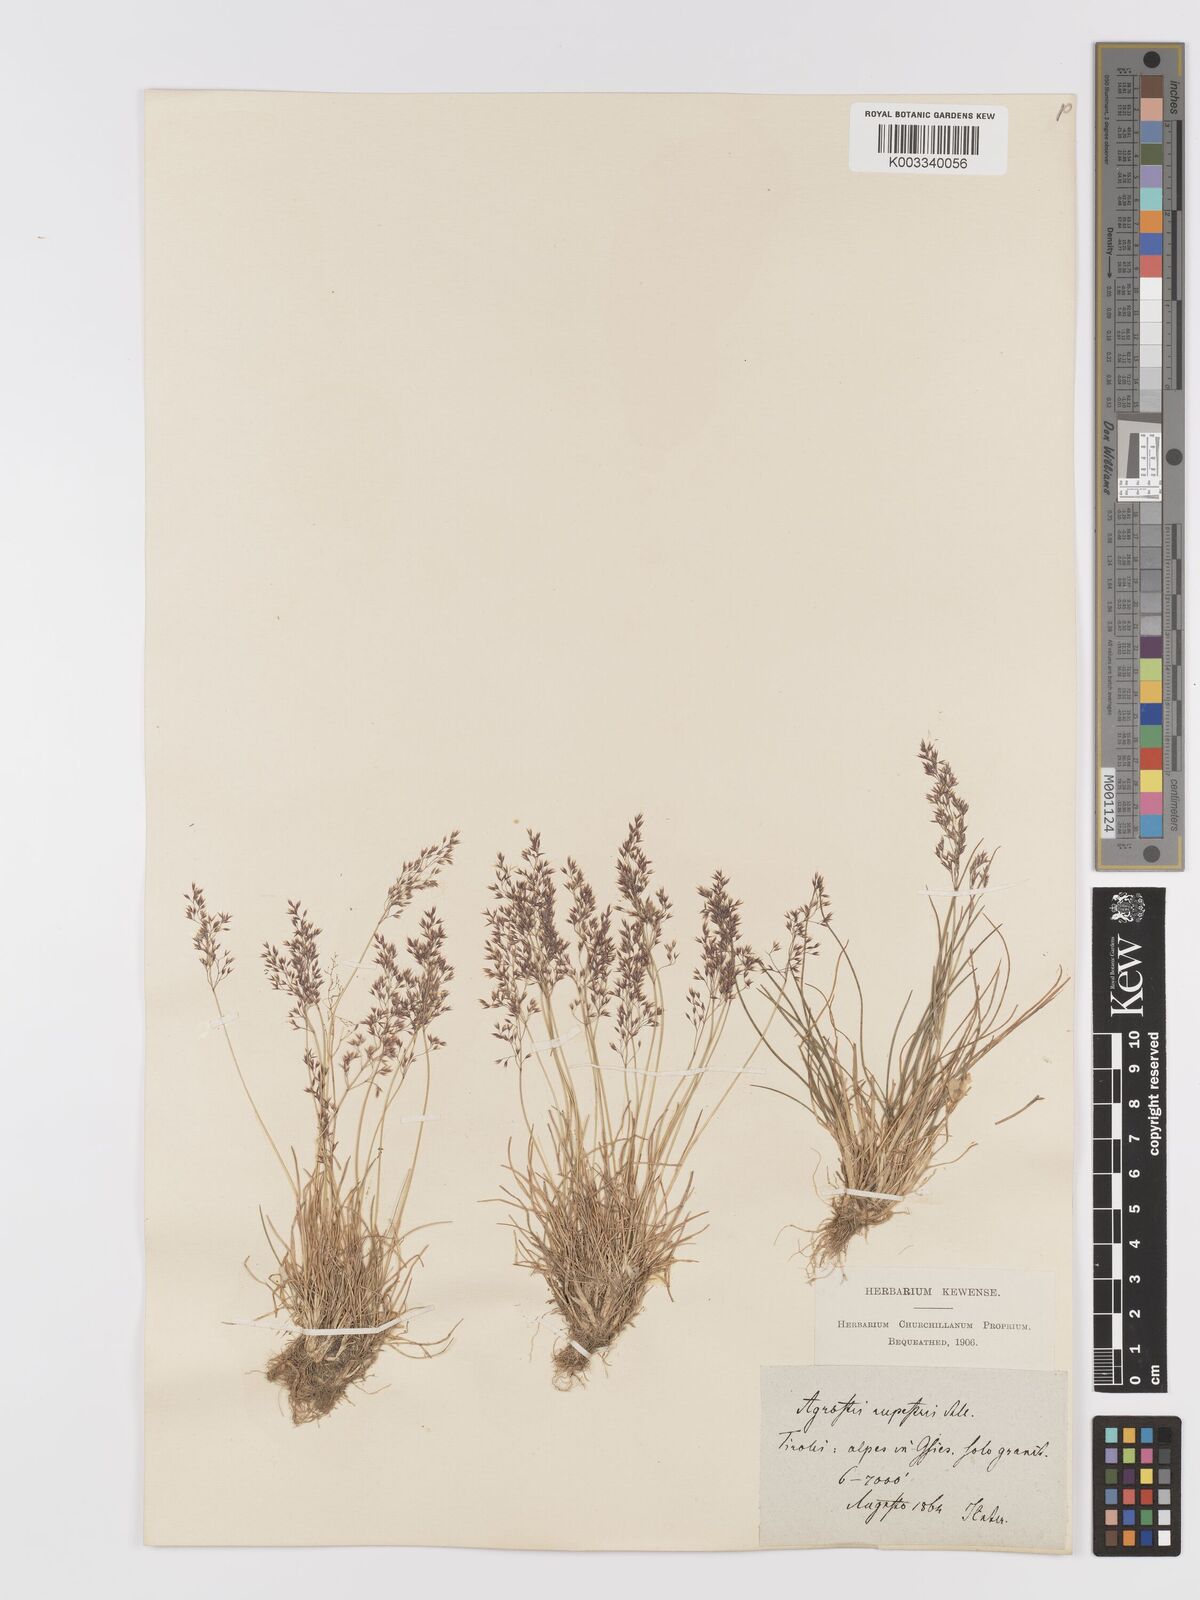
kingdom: Plantae
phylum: Tracheophyta
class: Liliopsida
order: Poales
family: Poaceae
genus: Agrostis
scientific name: Agrostis rupestris
